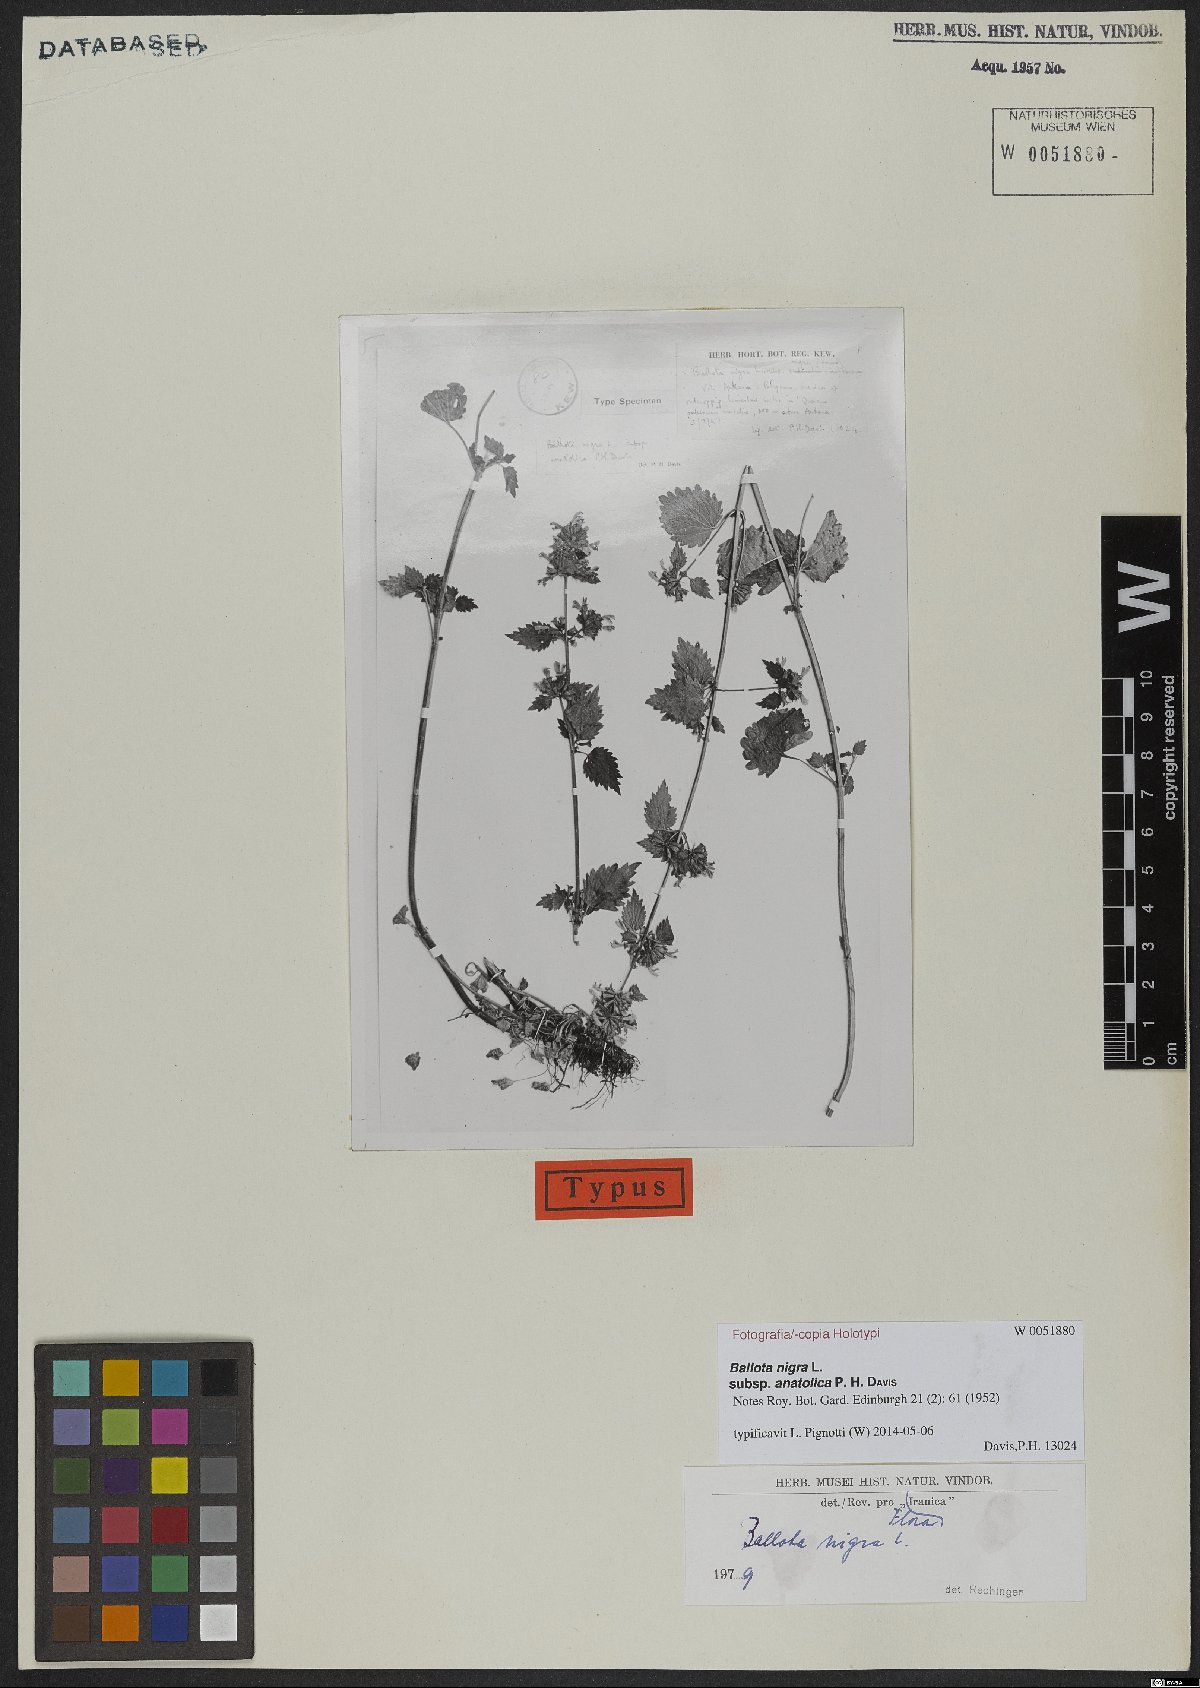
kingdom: Plantae
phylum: Tracheophyta
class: Magnoliopsida
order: Lamiales
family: Lamiaceae
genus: Ballota
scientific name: Ballota nigra
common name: Black horehound
